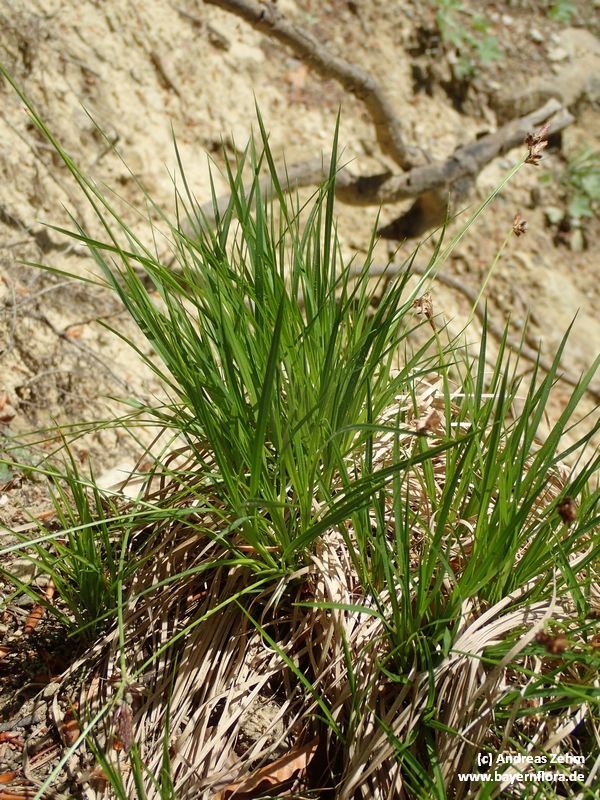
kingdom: Plantae
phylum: Tracheophyta
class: Liliopsida
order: Poales
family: Cyperaceae
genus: Carex
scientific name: Carex pilulifera
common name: Pill sedge
